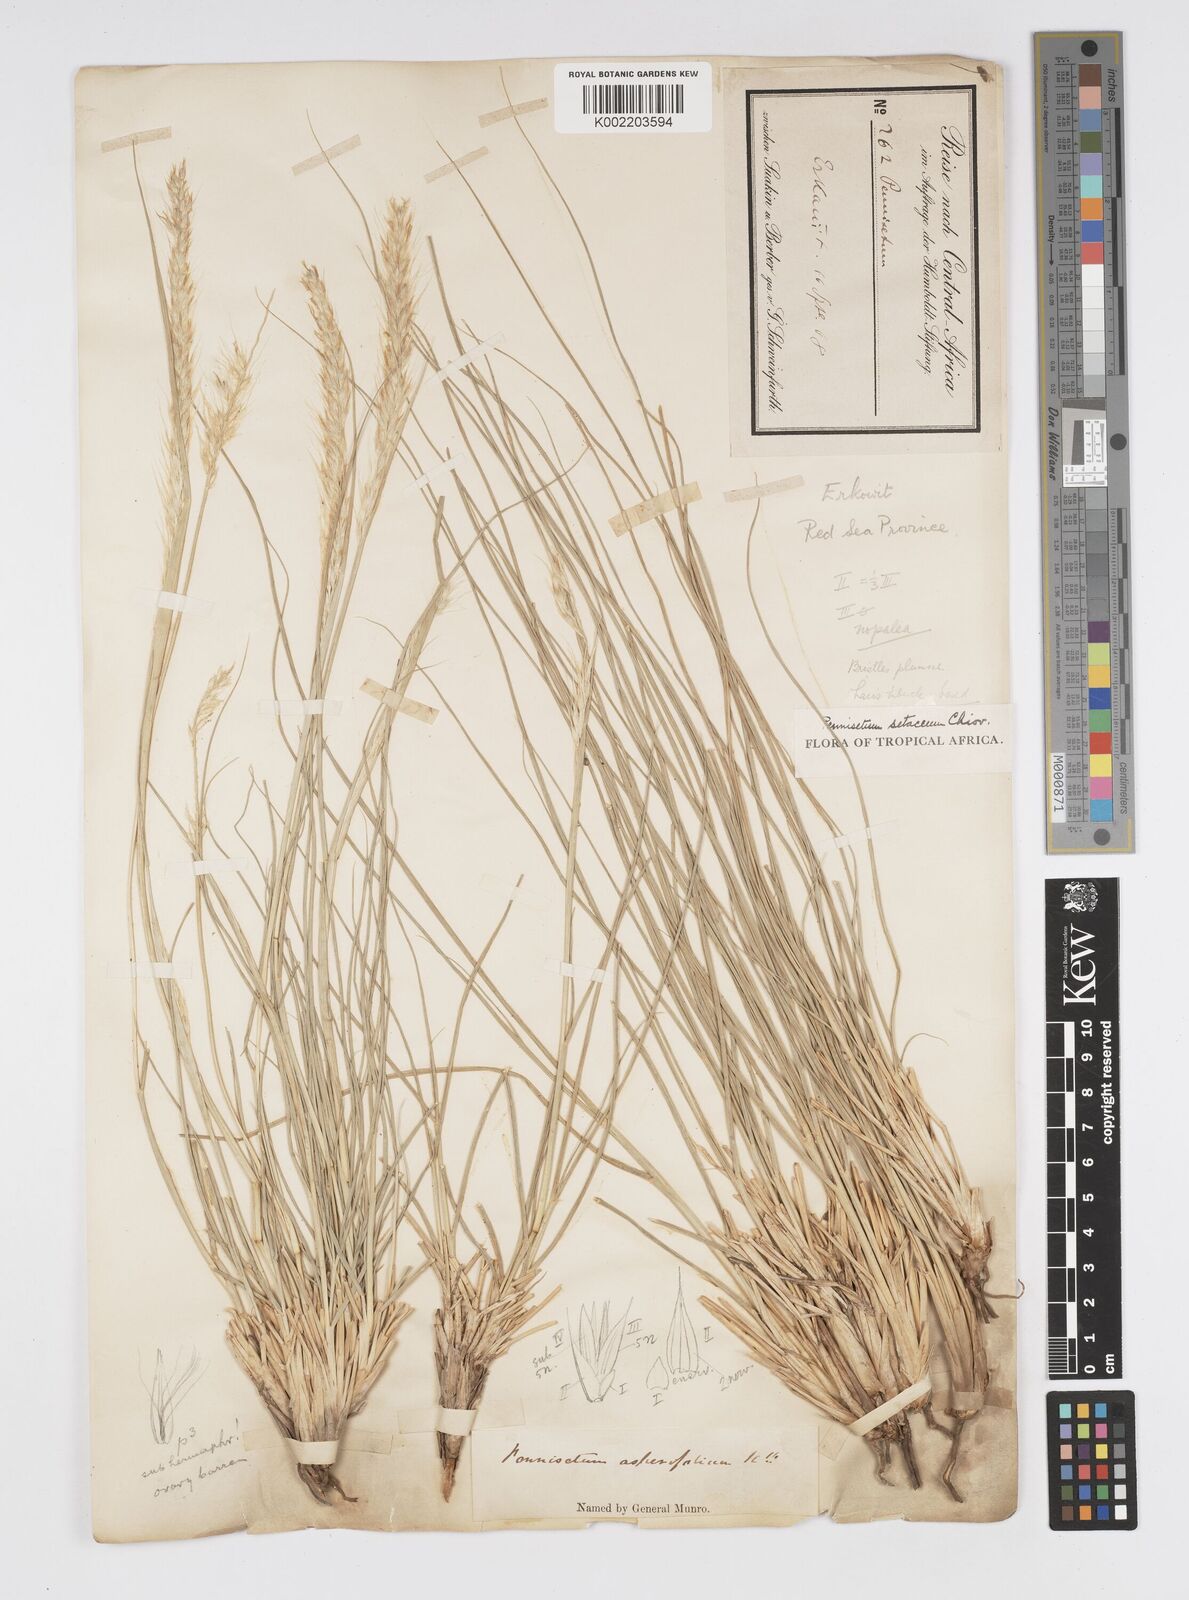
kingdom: Plantae
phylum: Tracheophyta
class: Liliopsida
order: Poales
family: Poaceae
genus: Cenchrus
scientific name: Cenchrus setaceus
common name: Crimson fountaingrass
